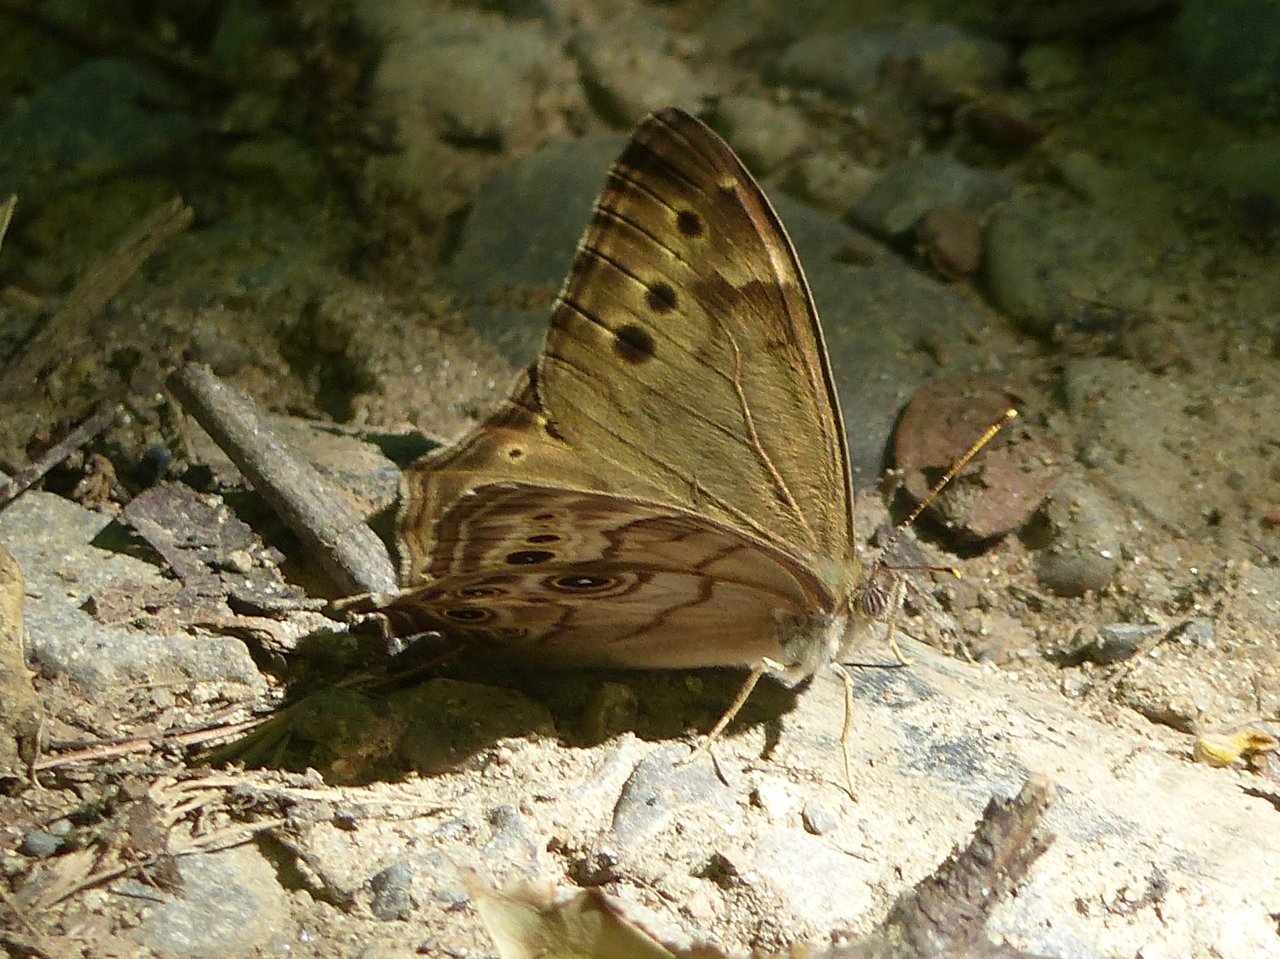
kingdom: Animalia
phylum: Arthropoda
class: Insecta
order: Lepidoptera
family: Nymphalidae
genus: Lethe
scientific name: Lethe anthedon
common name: Northern Pearly-Eye
